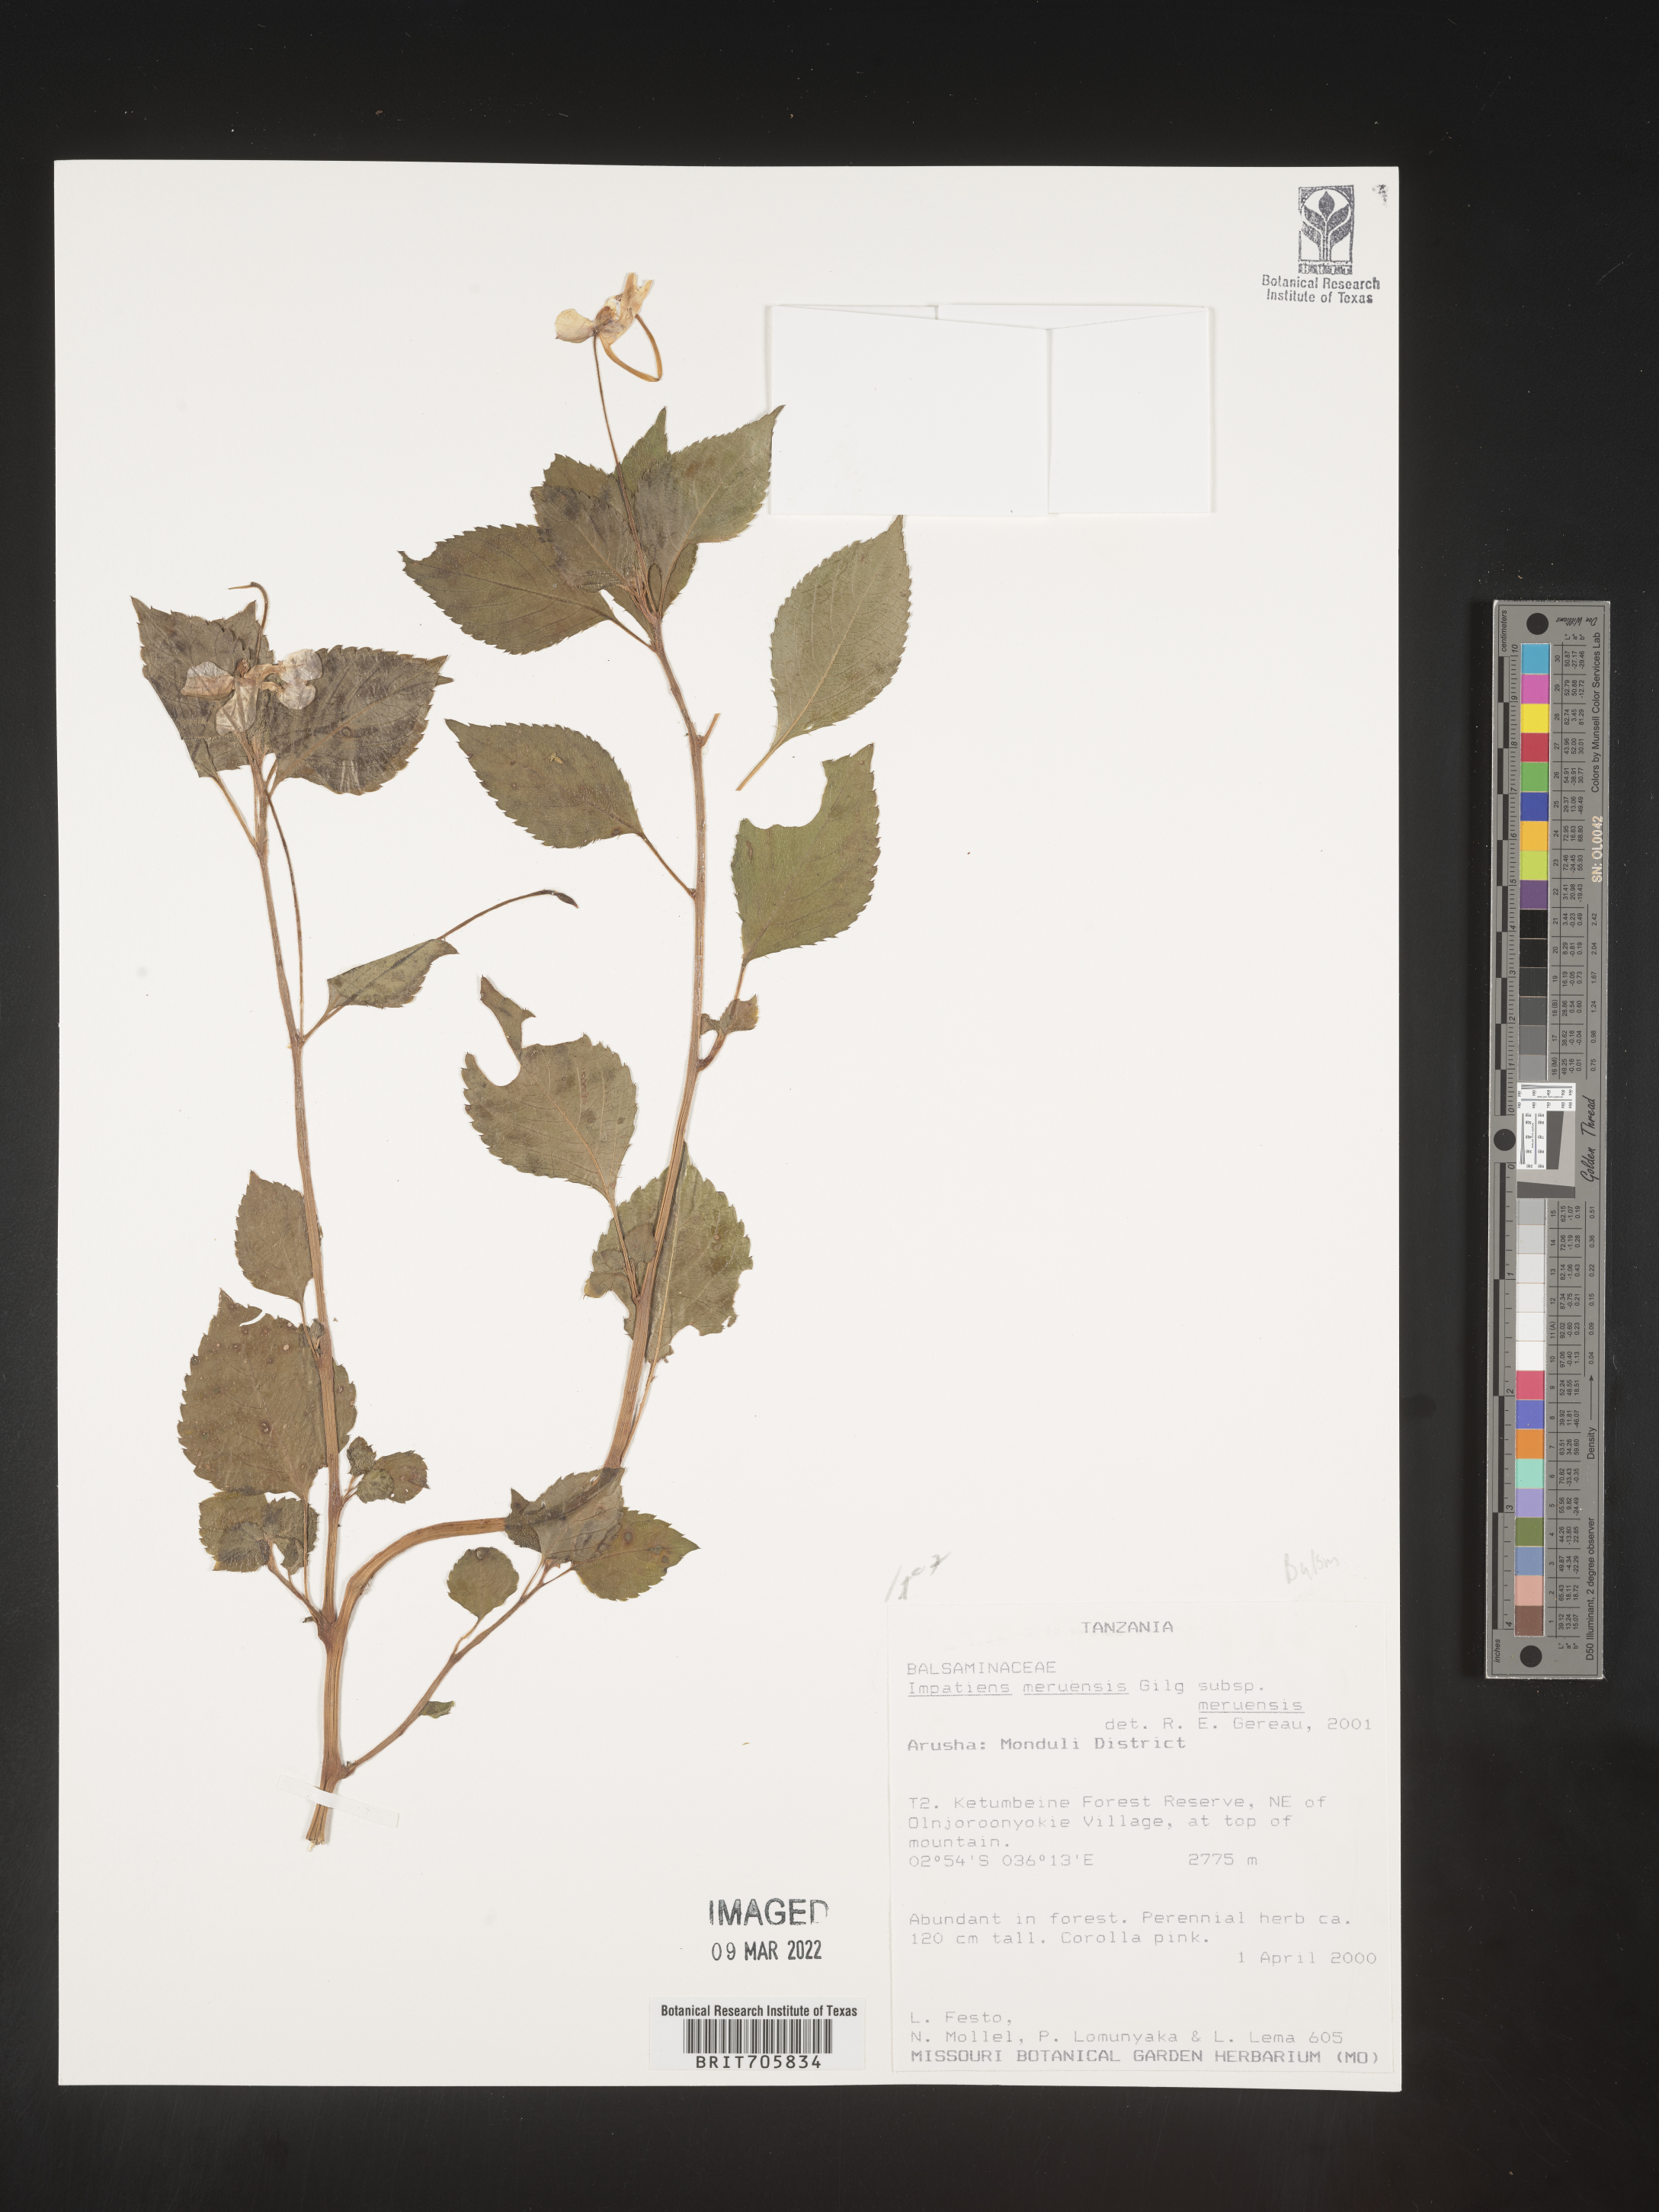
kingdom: Plantae
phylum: Tracheophyta
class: Magnoliopsida
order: Ericales
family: Balsaminaceae
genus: Impatiens
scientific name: Impatiens
